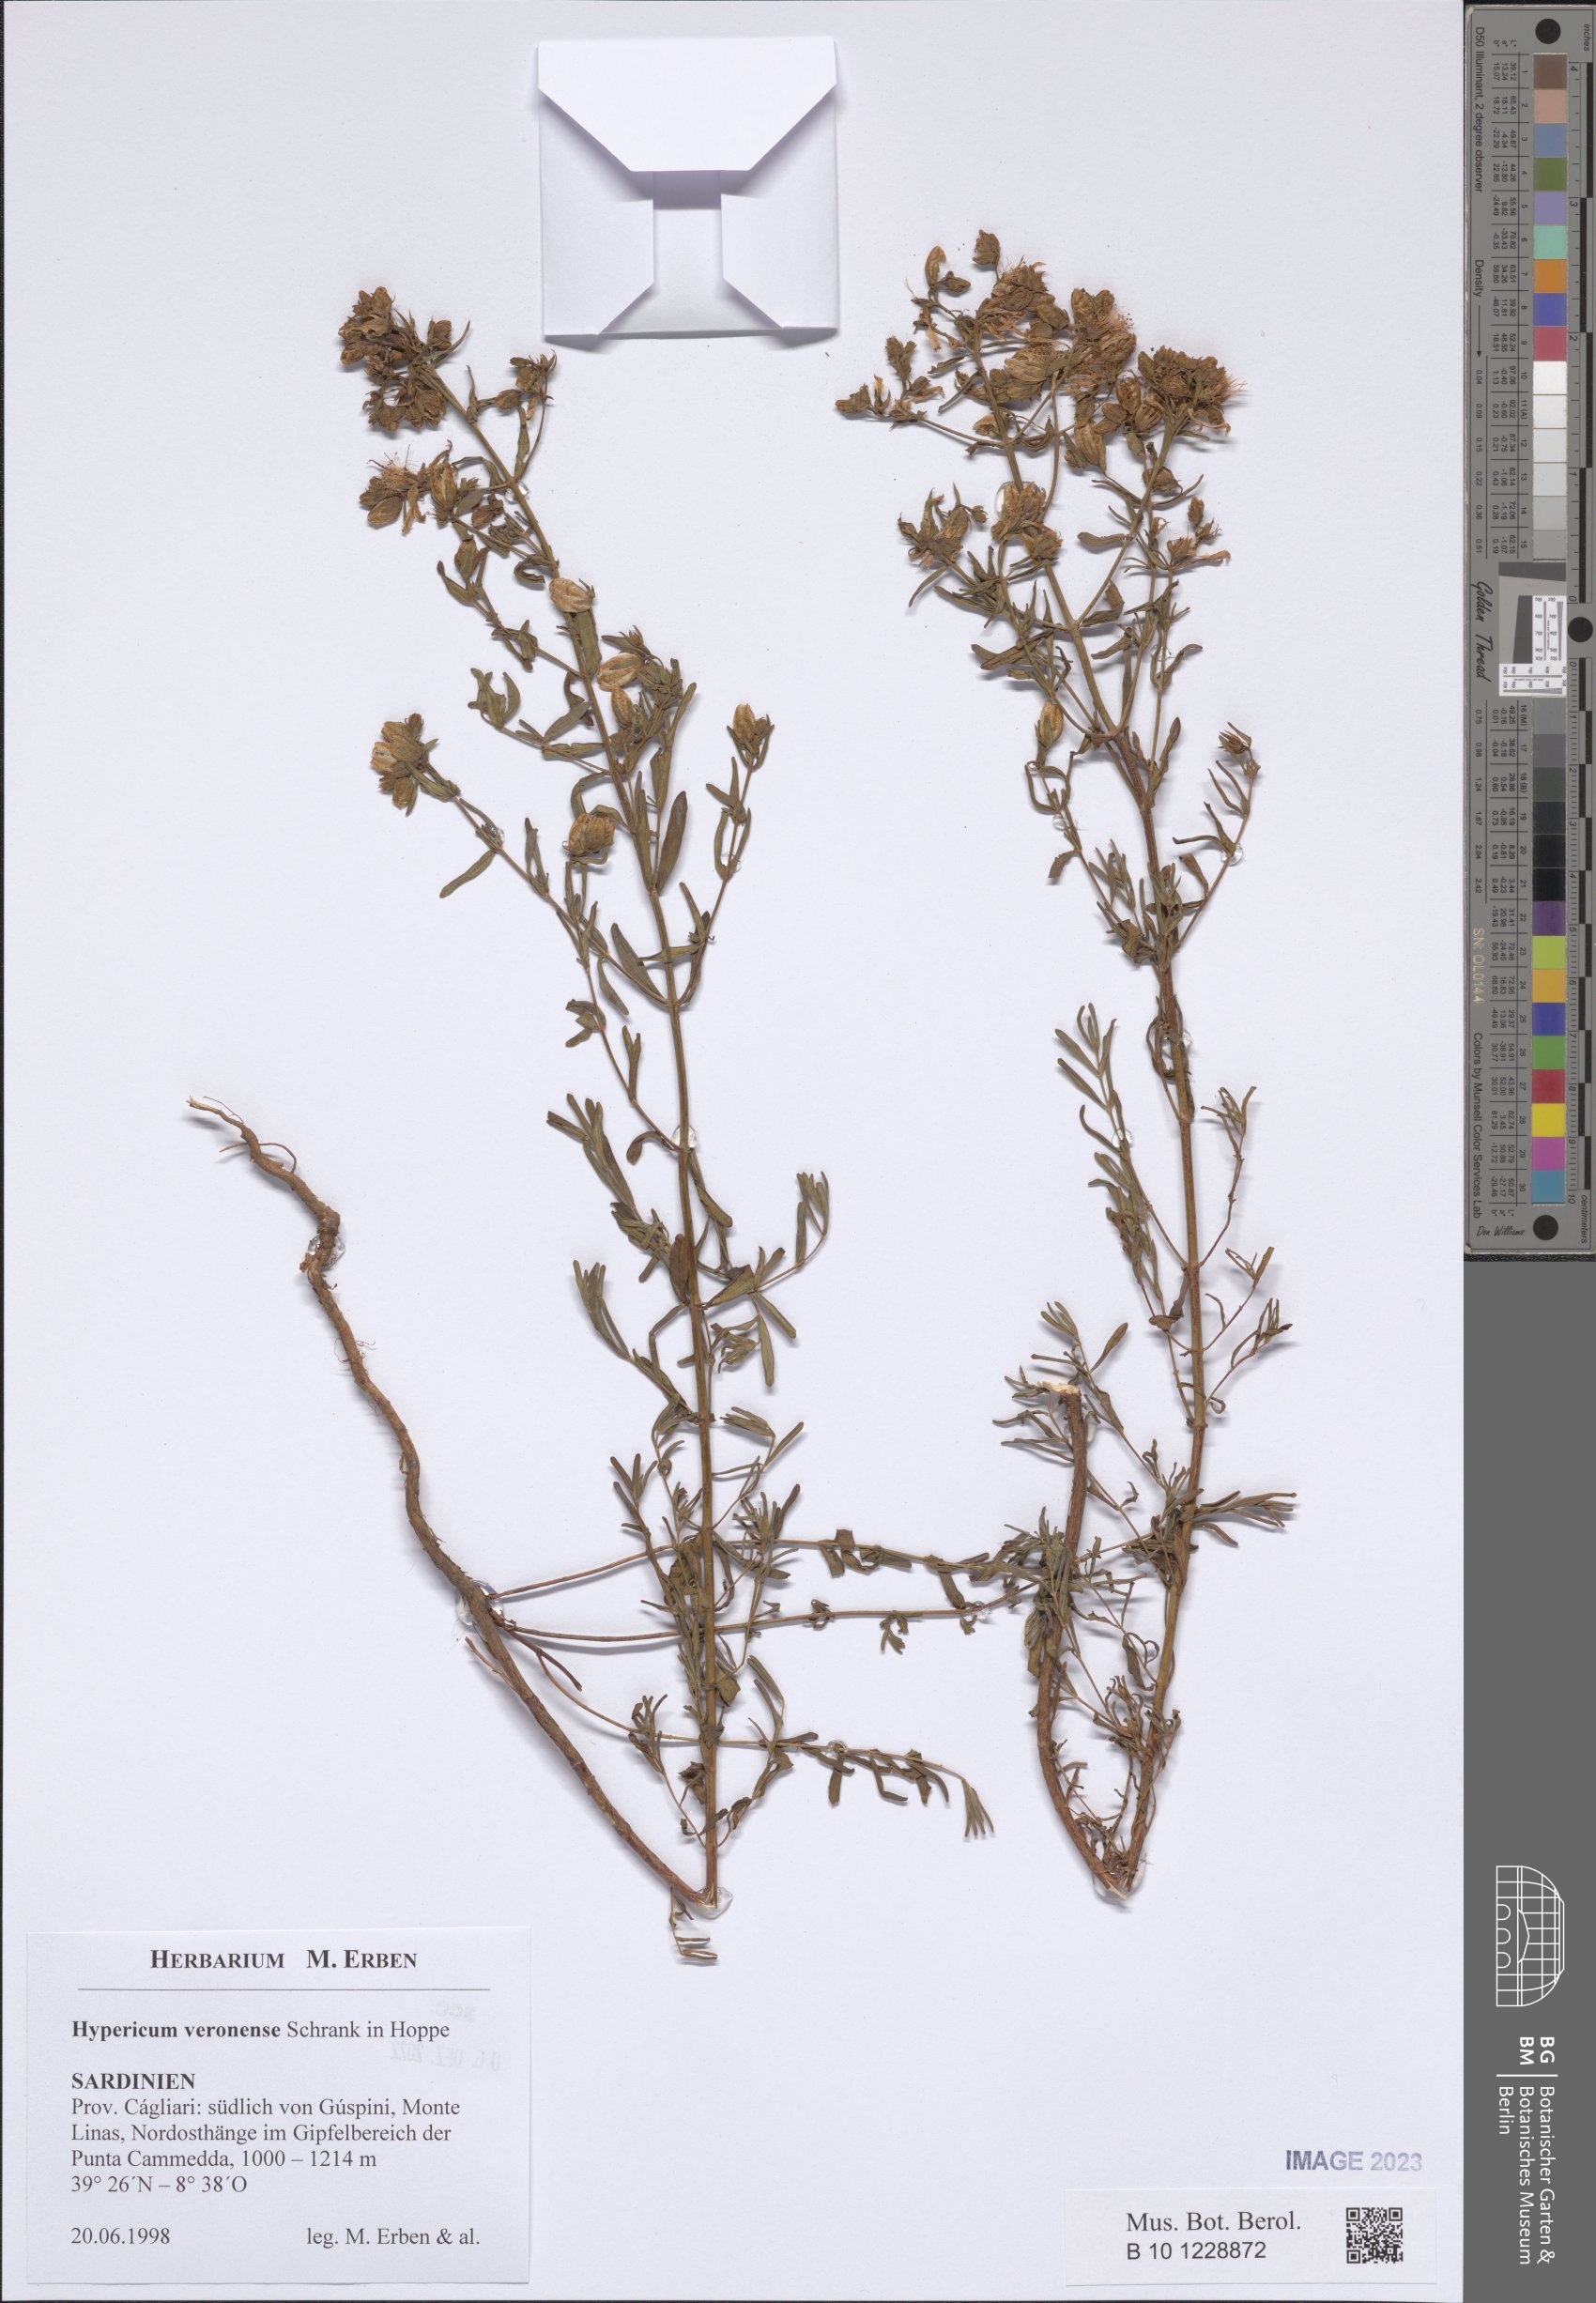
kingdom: Plantae
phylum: Tracheophyta
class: Magnoliopsida
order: Malpighiales
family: Hypericaceae
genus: Hypericum
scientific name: Hypericum veronense
